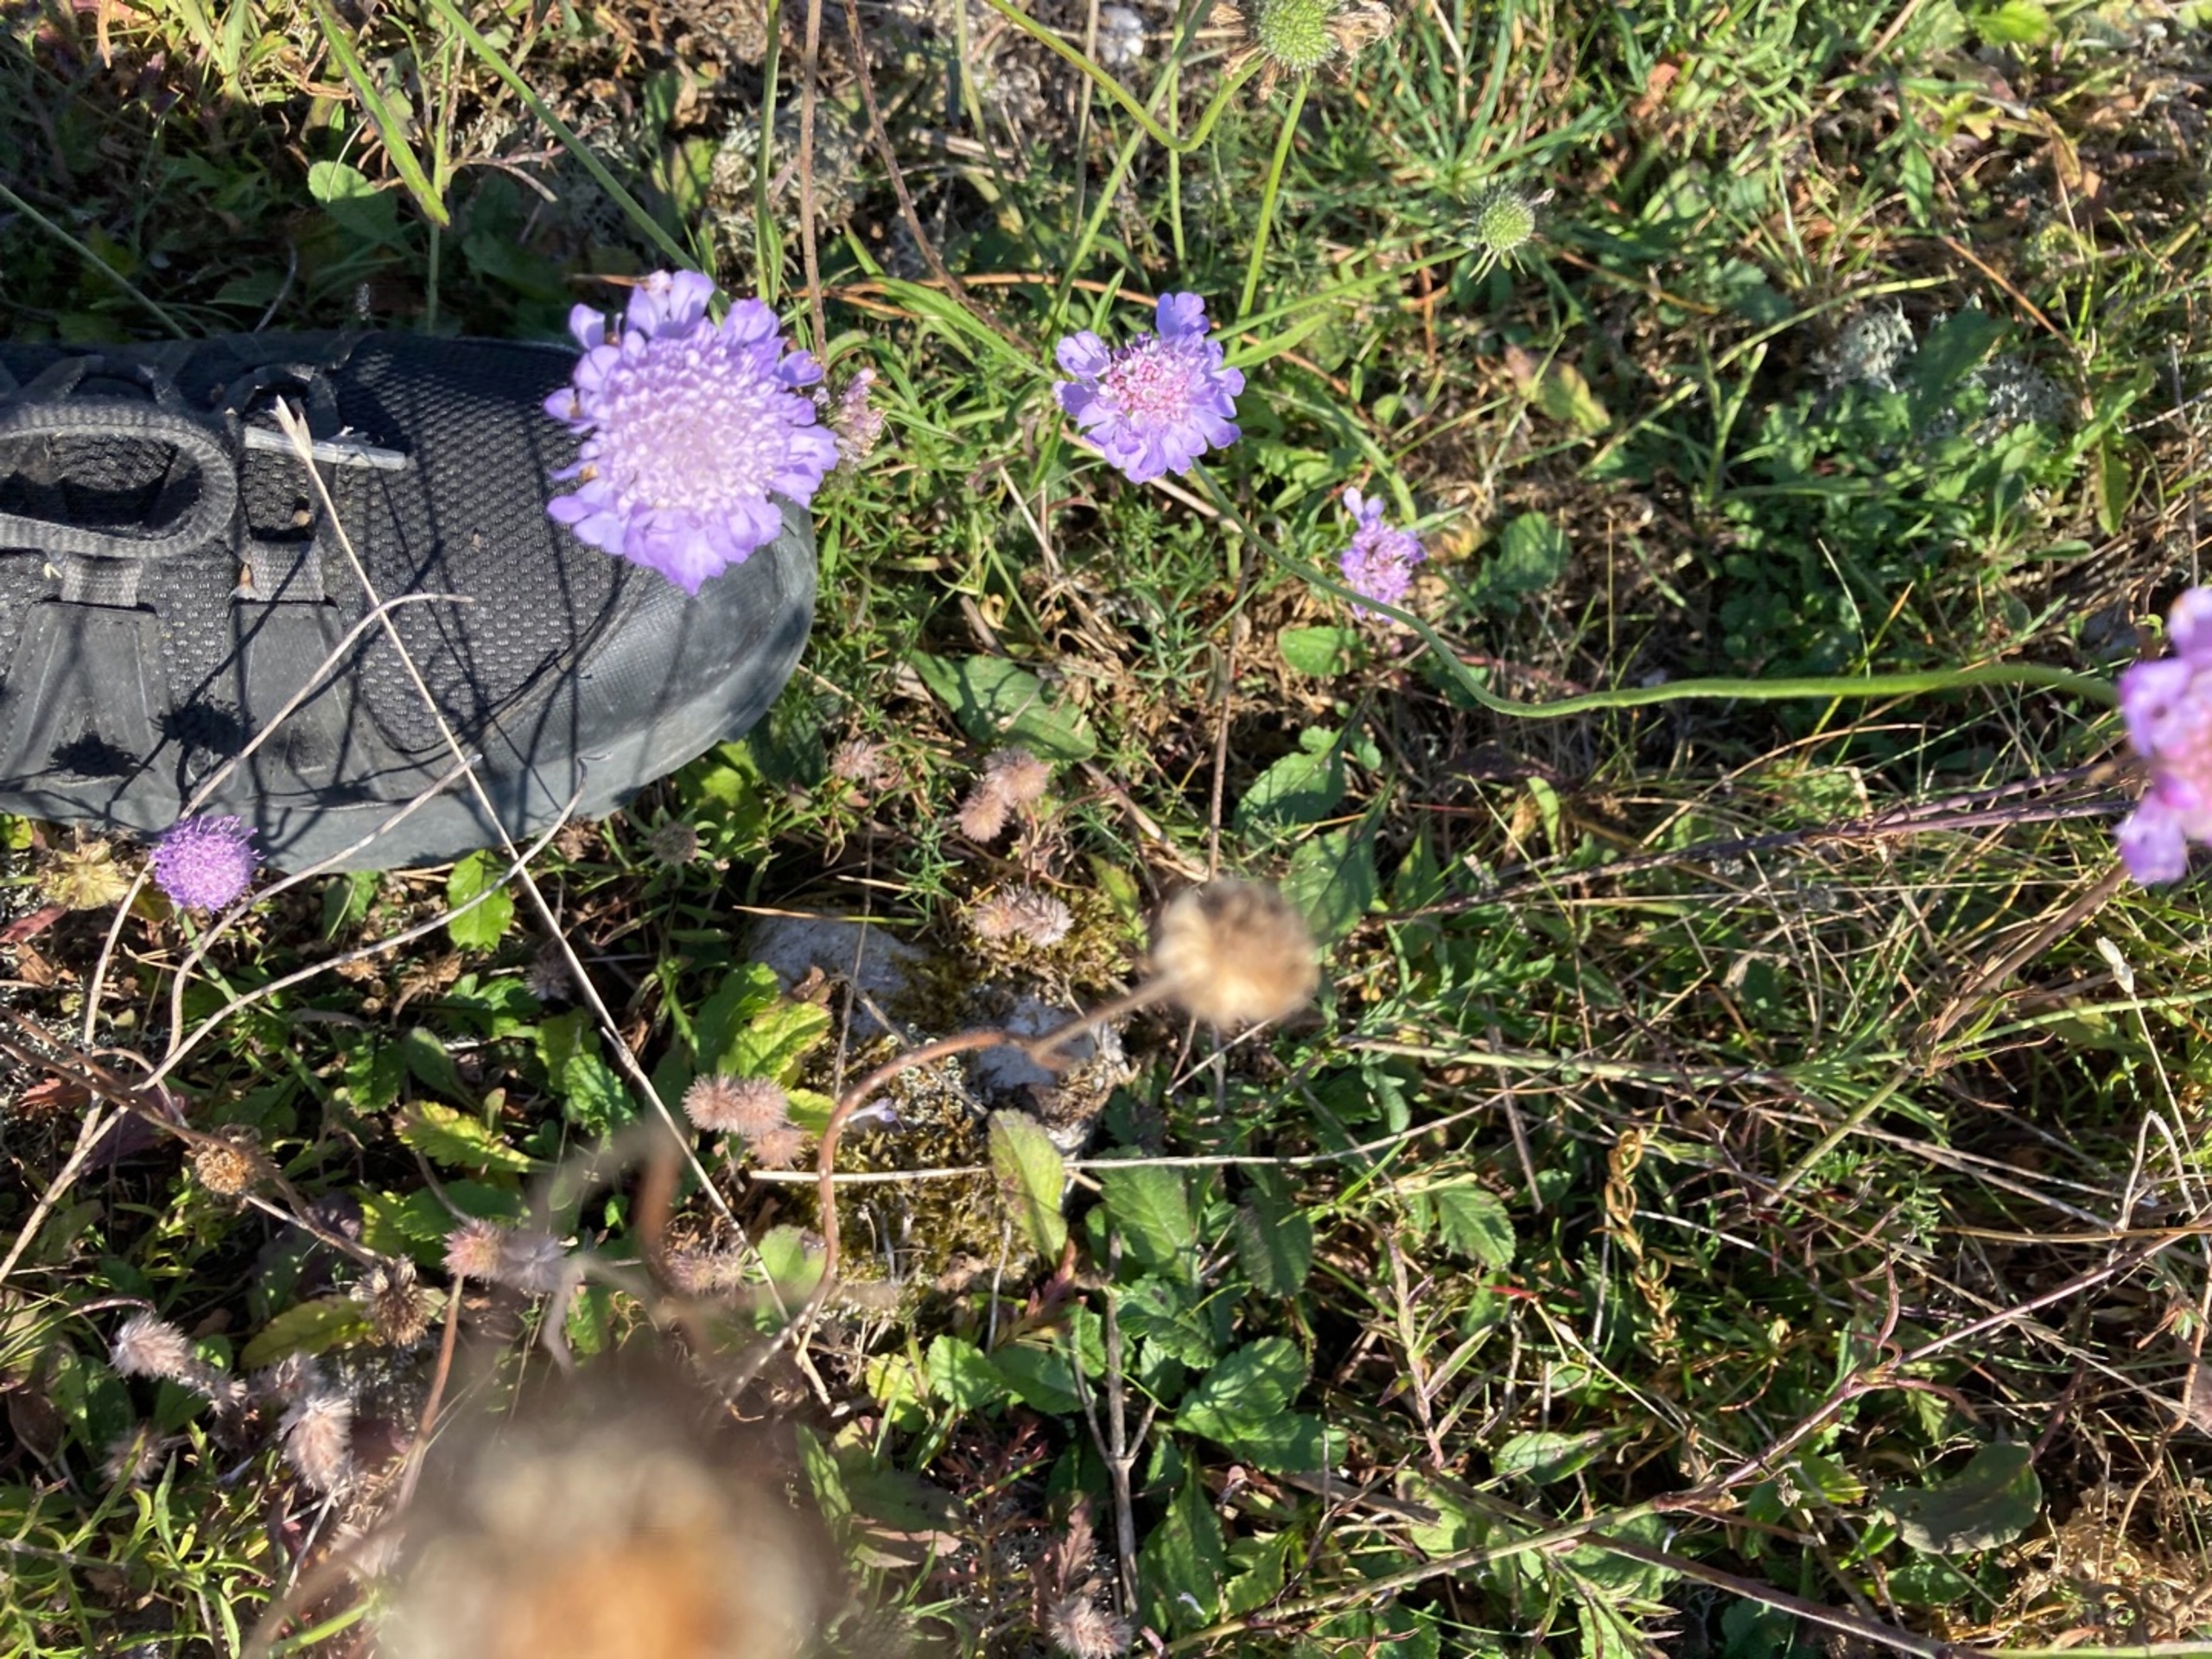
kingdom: Plantae
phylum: Tracheophyta
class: Magnoliopsida
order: Dipsacales
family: Caprifoliaceae
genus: Scabiosa
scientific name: Scabiosa
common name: Skabioseslægten
